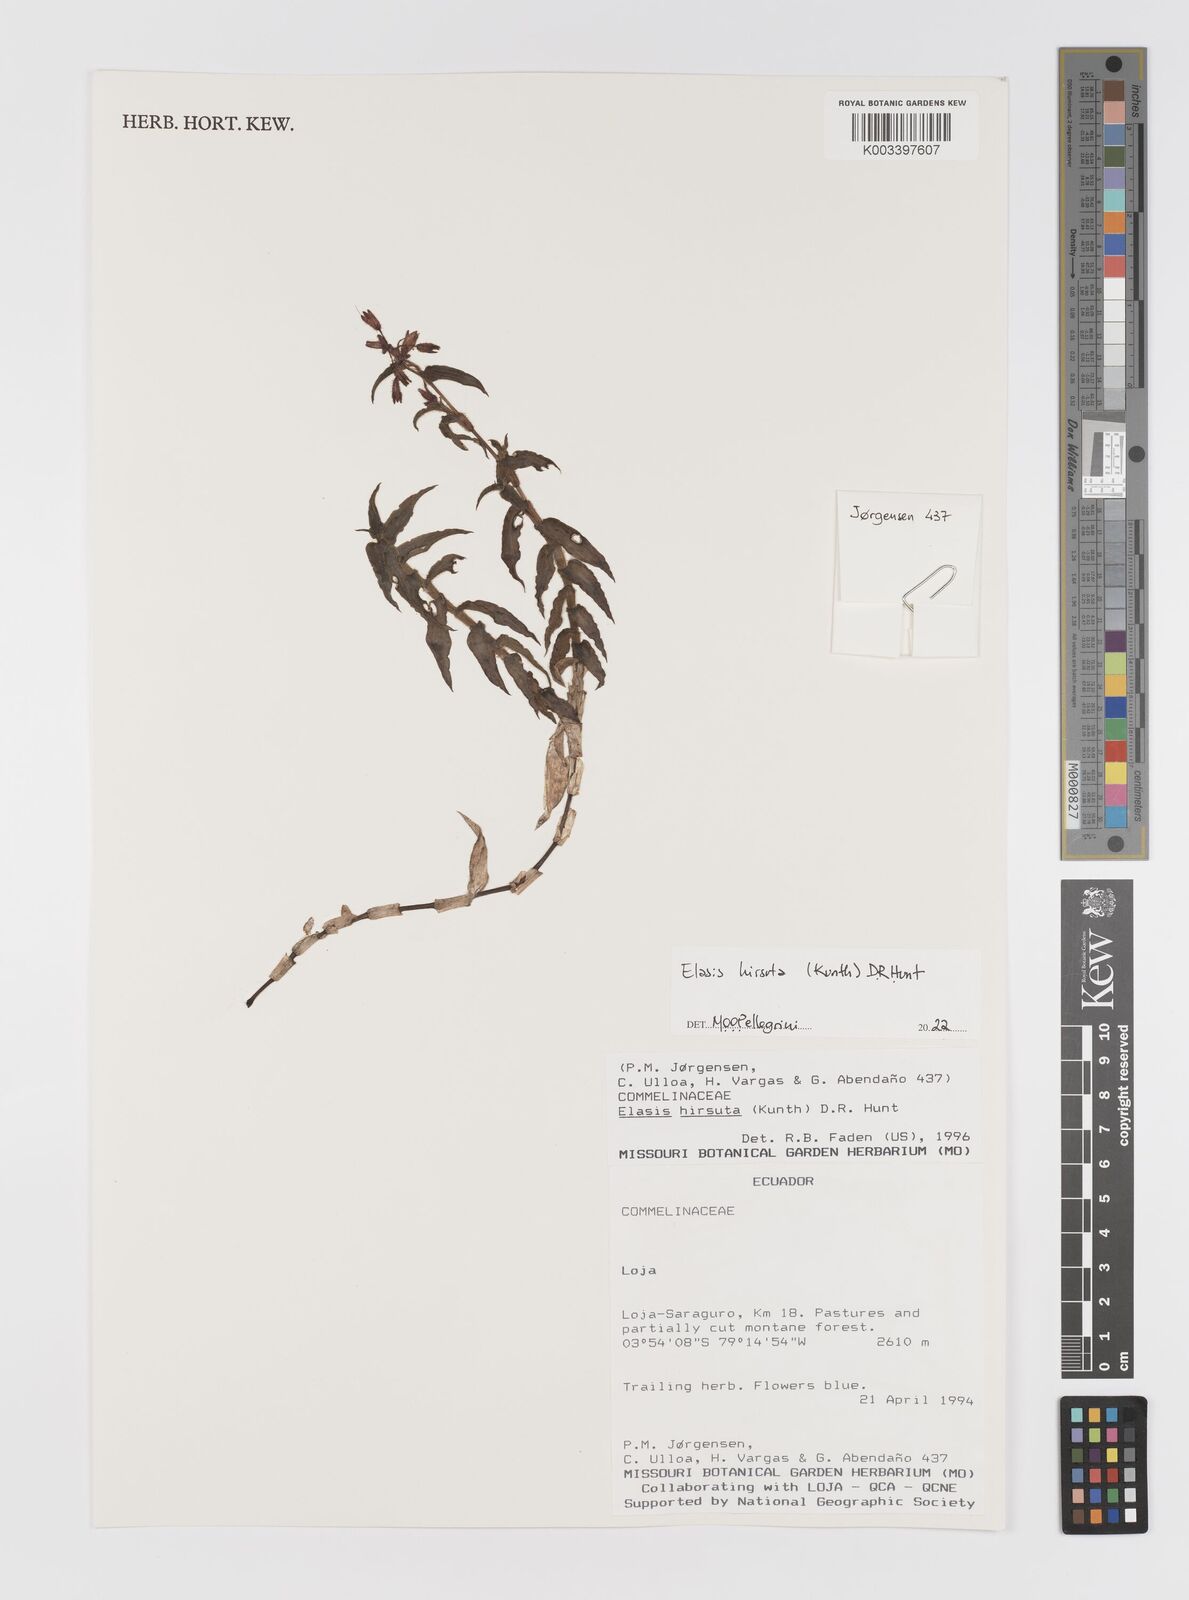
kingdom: Plantae
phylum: Tracheophyta
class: Liliopsida
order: Commelinales
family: Commelinaceae
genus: Elasis
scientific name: Elasis hirsuta
